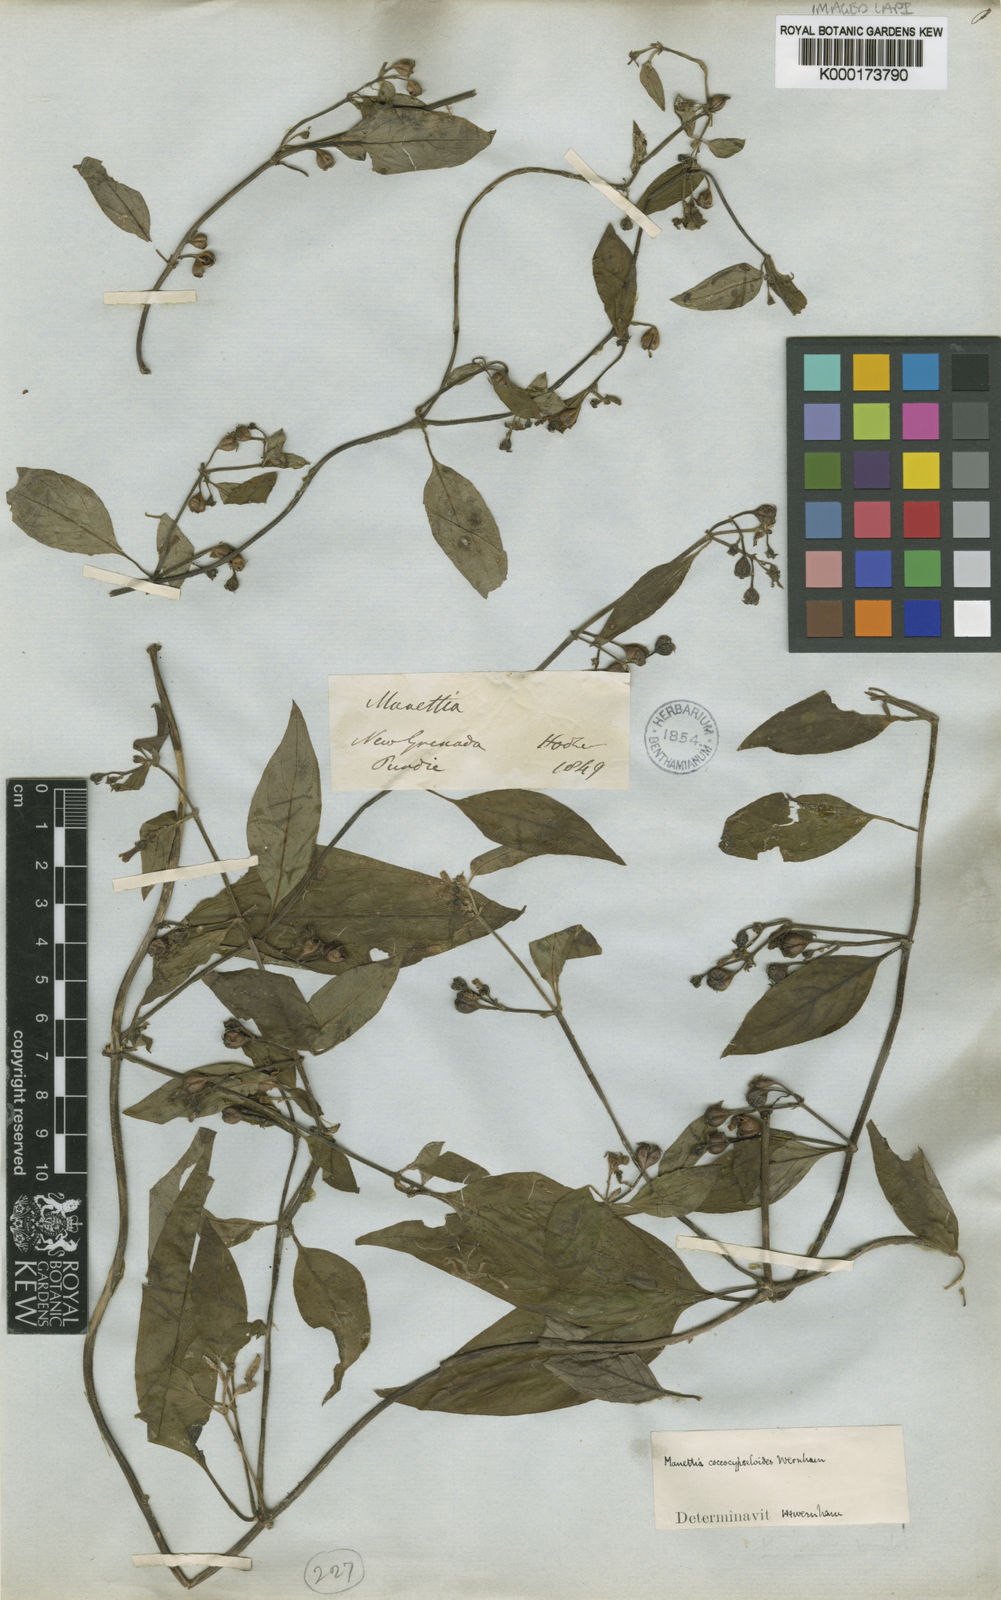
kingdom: Plantae
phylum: Tracheophyta
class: Magnoliopsida
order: Gentianales
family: Rubiaceae
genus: Manettia
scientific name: Manettia coccocypseloides
